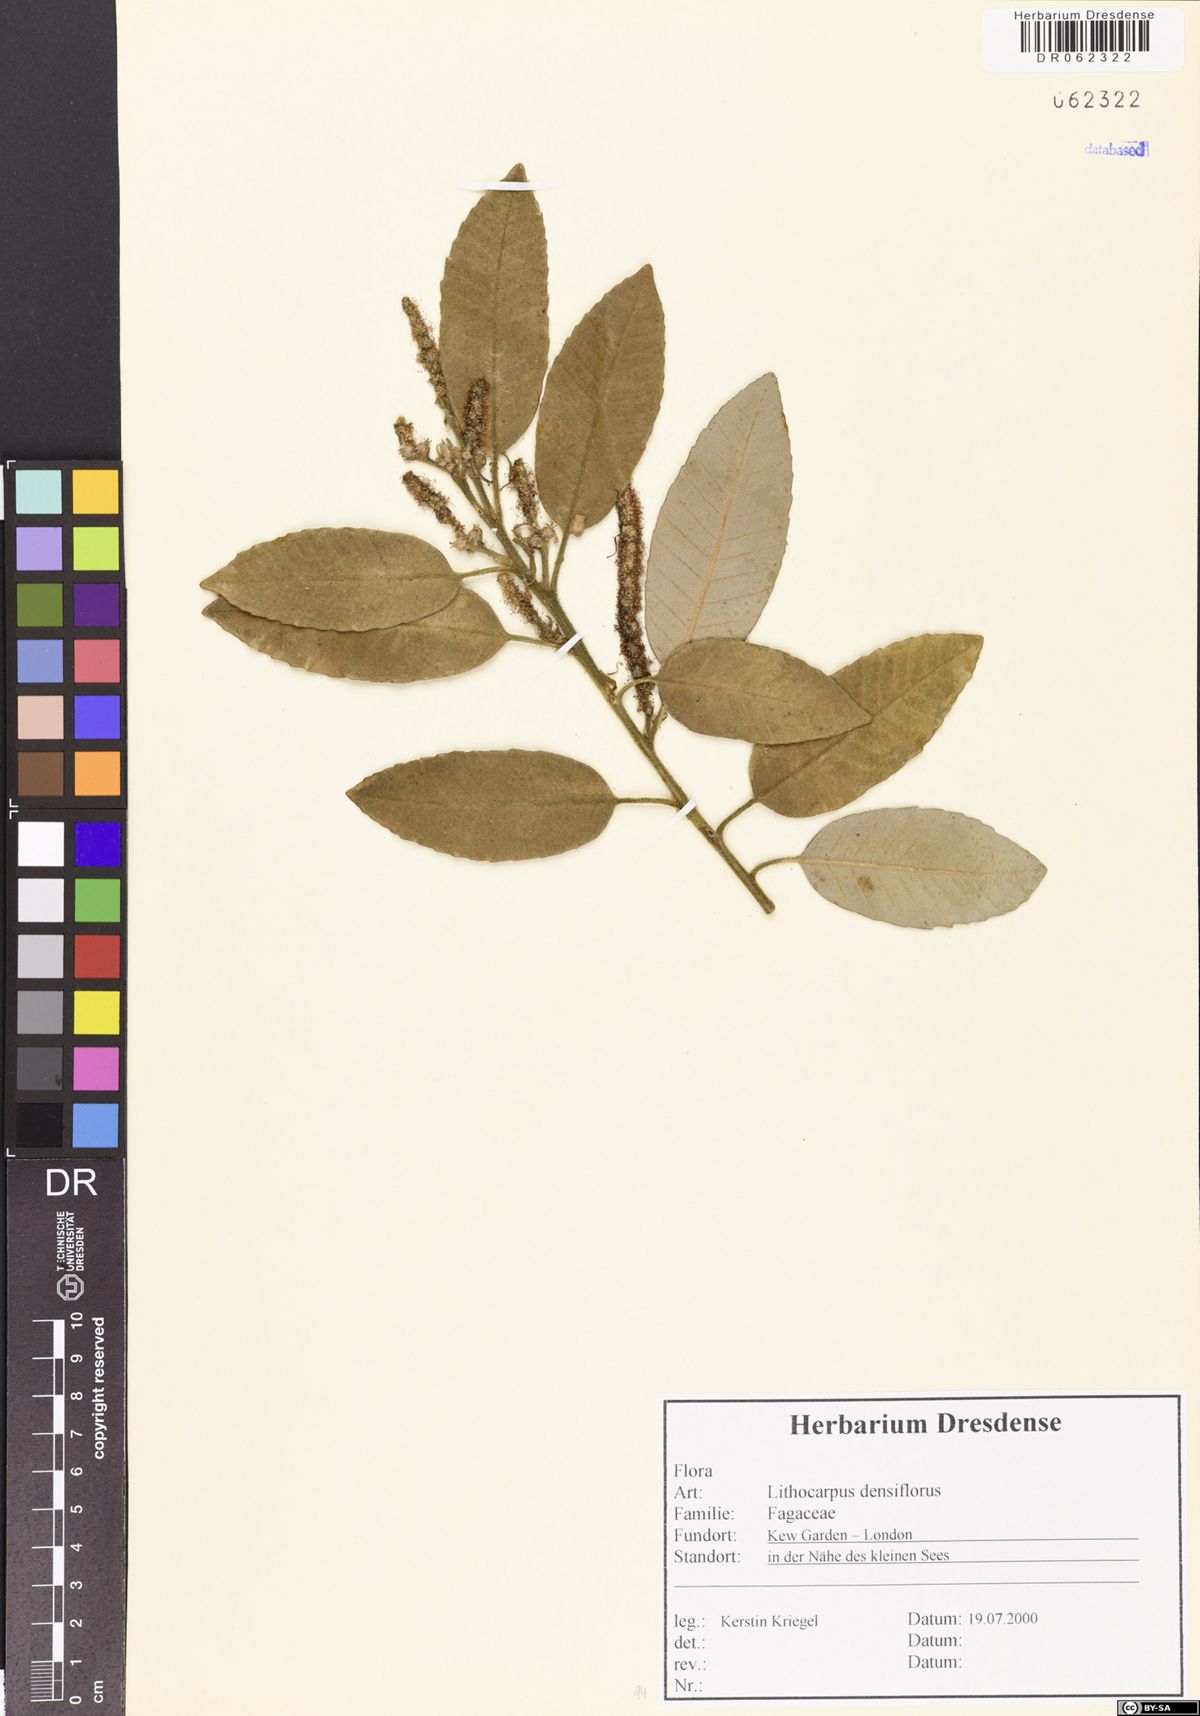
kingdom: Plantae
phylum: Tracheophyta
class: Magnoliopsida
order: Fagales
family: Fagaceae
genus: Notholithocarpus
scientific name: Notholithocarpus densiflorus
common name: Tan bark oak
